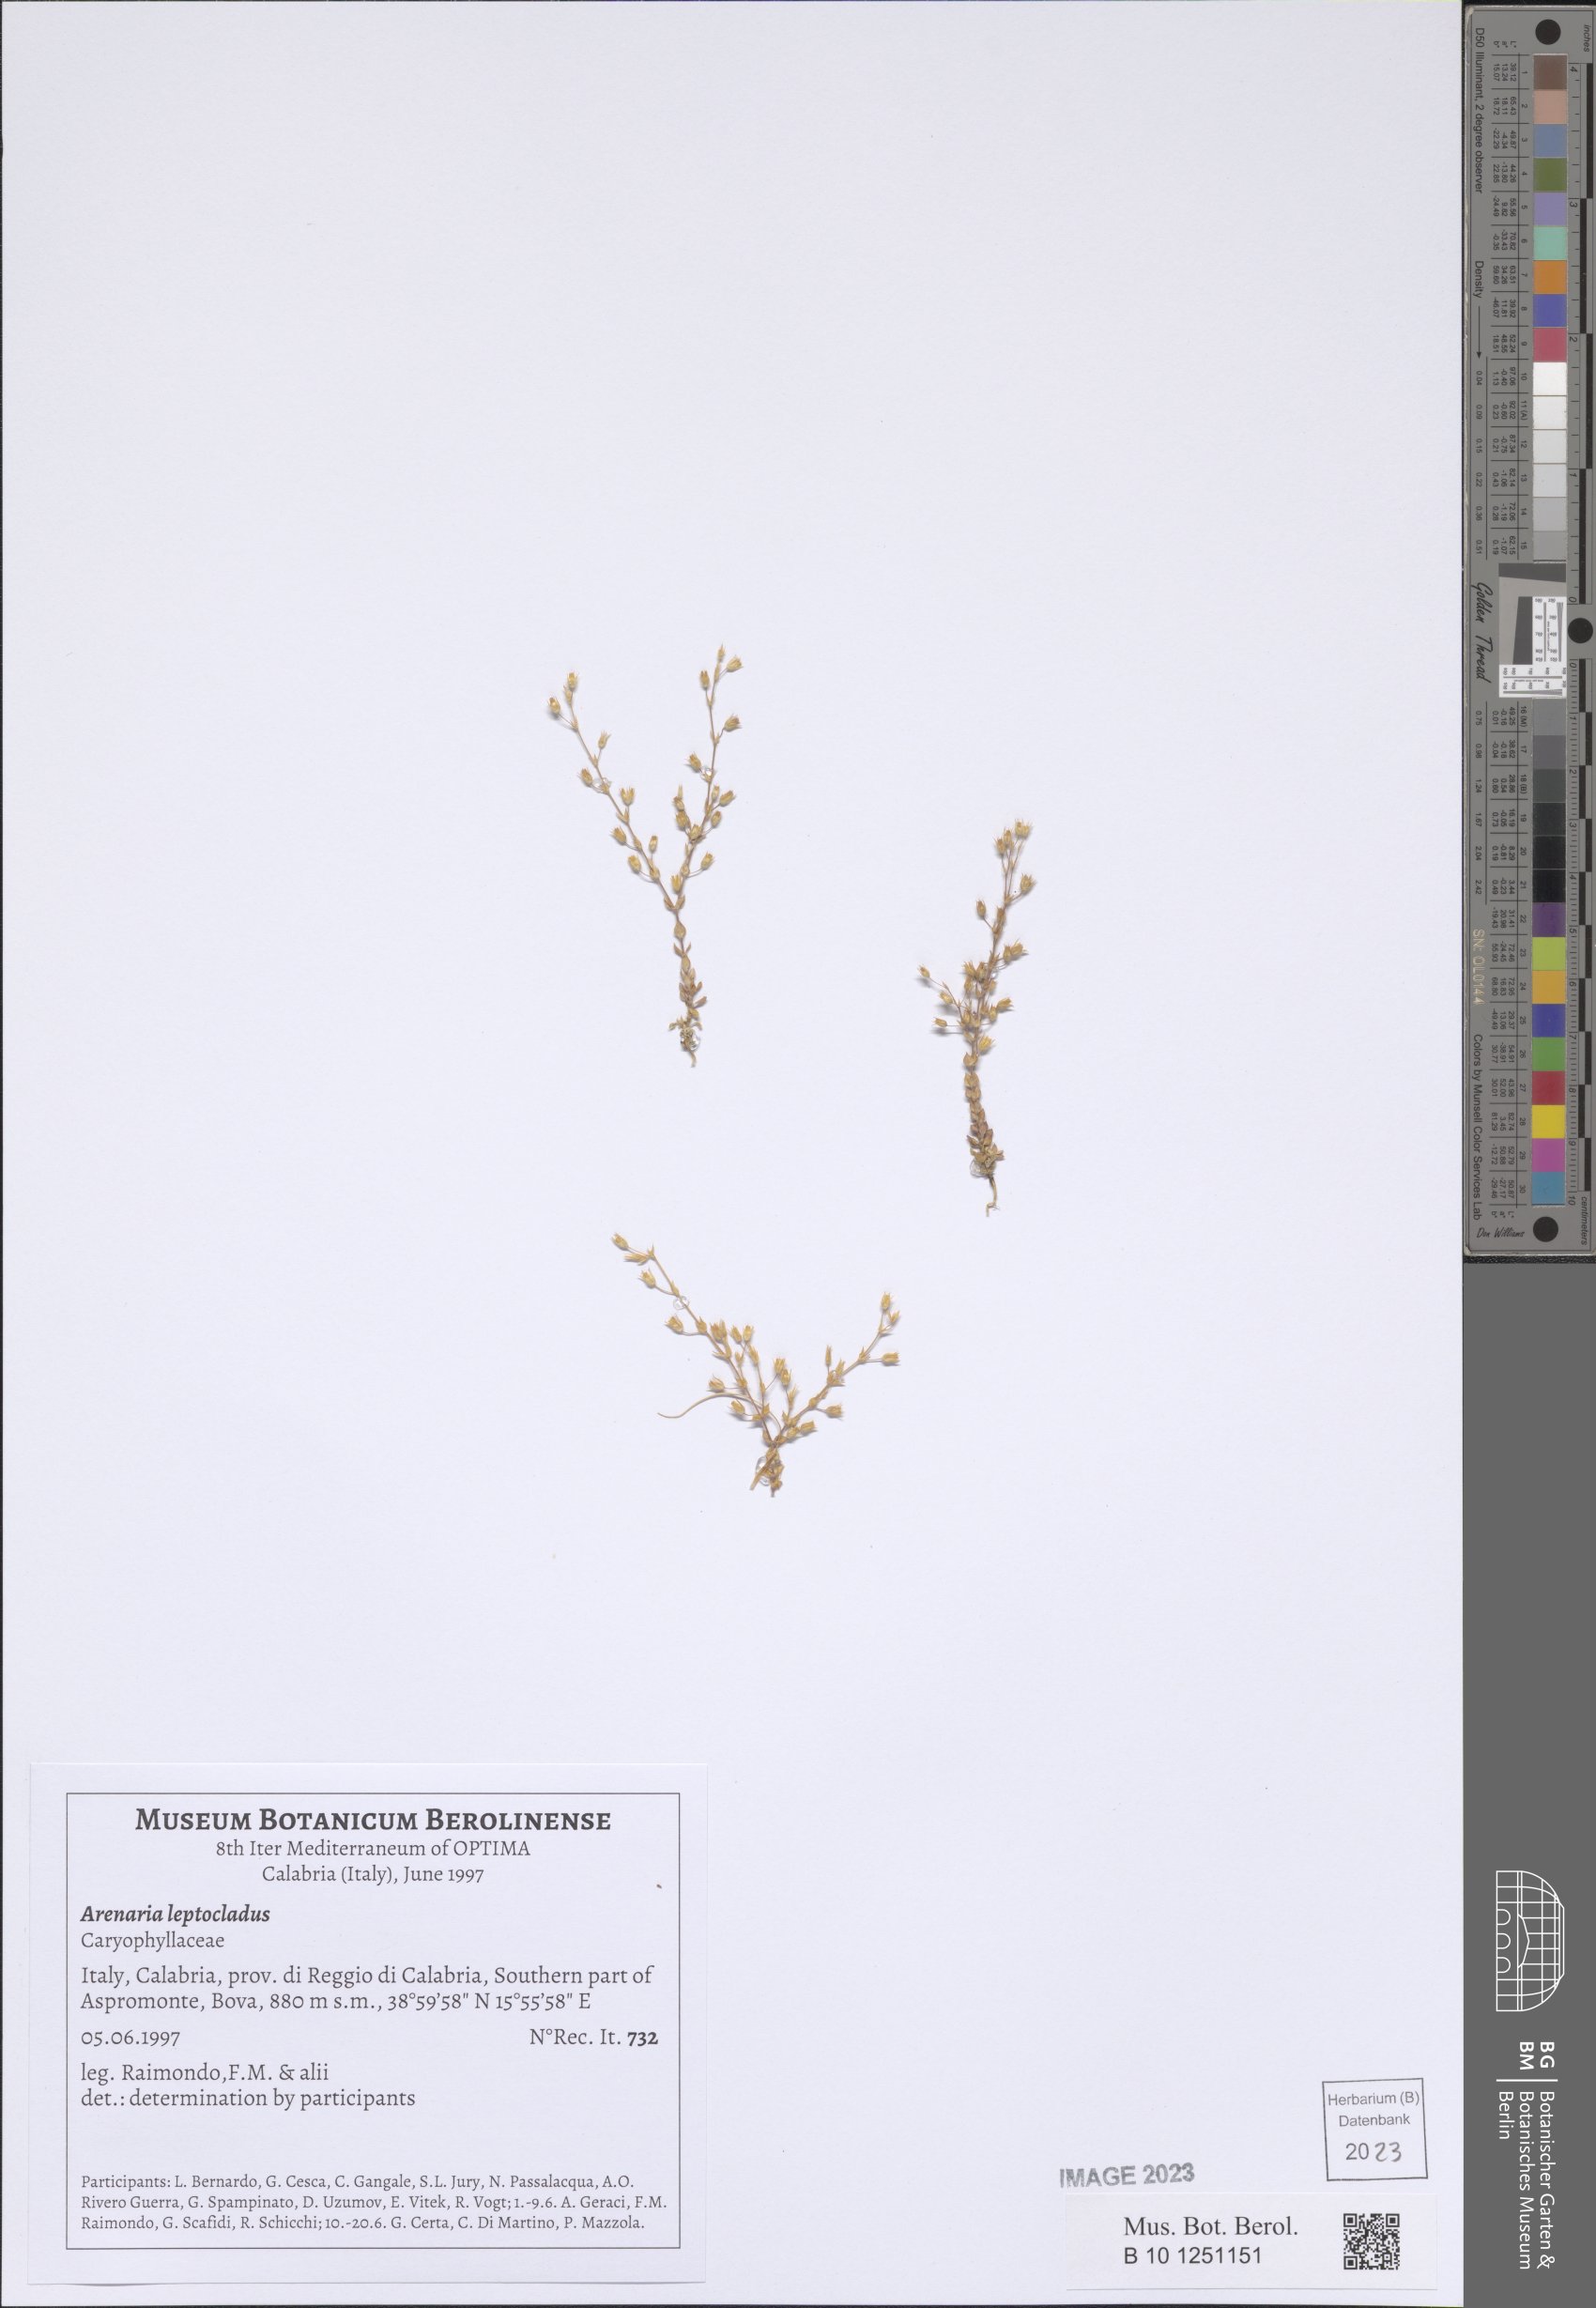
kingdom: Plantae
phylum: Tracheophyta
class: Magnoliopsida
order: Caryophyllales
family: Caryophyllaceae
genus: Arenaria
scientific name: Arenaria leptoclados
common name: Thyme-leaved sandwort
